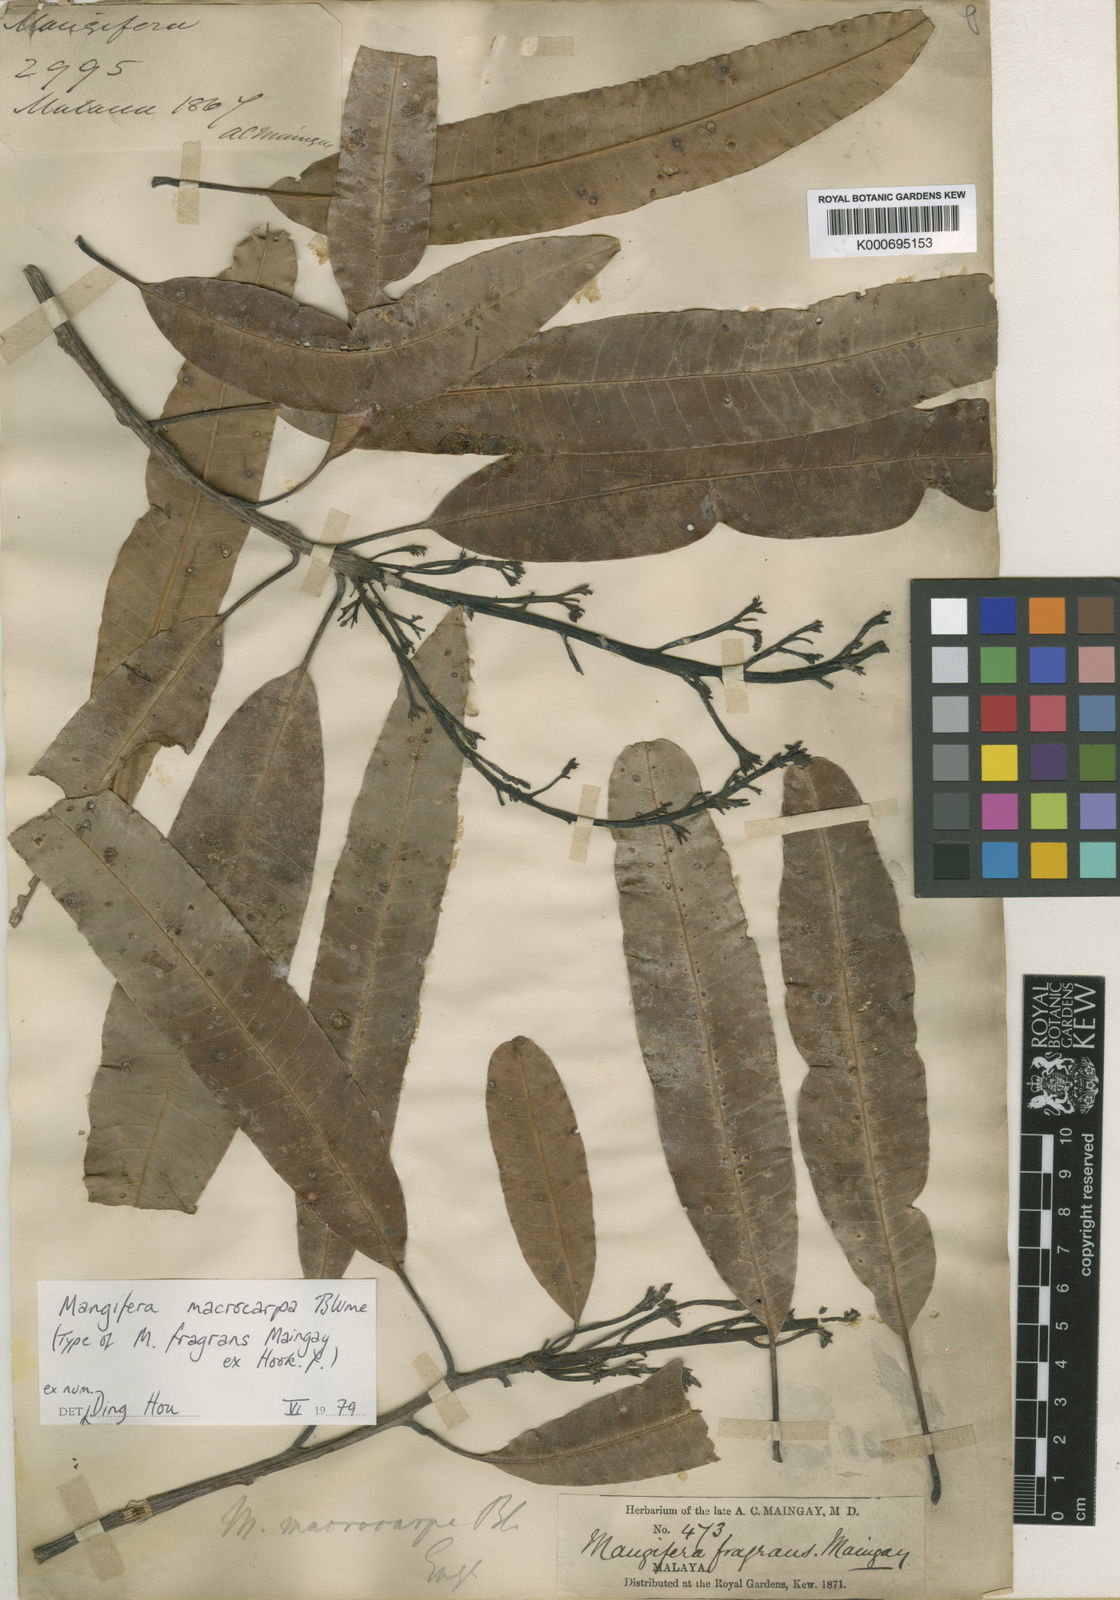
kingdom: Plantae
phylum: Tracheophyta
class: Magnoliopsida
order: Sapindales
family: Anacardiaceae
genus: Mangifera
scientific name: Mangifera macrocarpa
